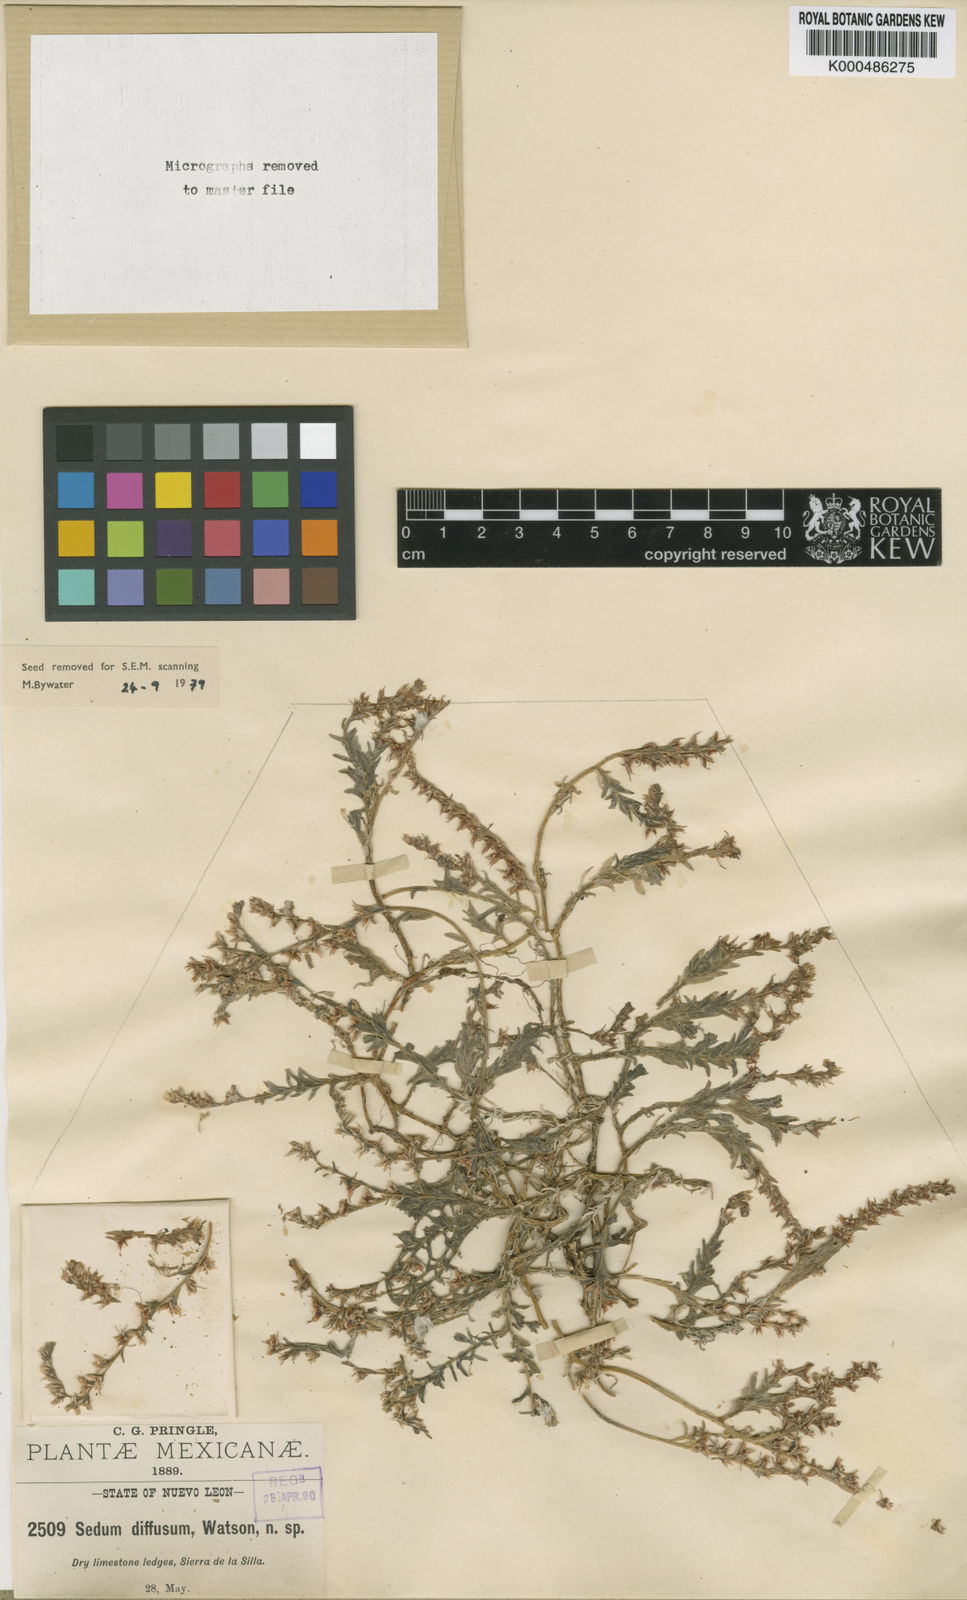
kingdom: Plantae
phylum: Tracheophyta
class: Magnoliopsida
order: Saxifragales
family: Crassulaceae
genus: Sedum
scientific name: Sedum diffusum
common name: Stonecrop
